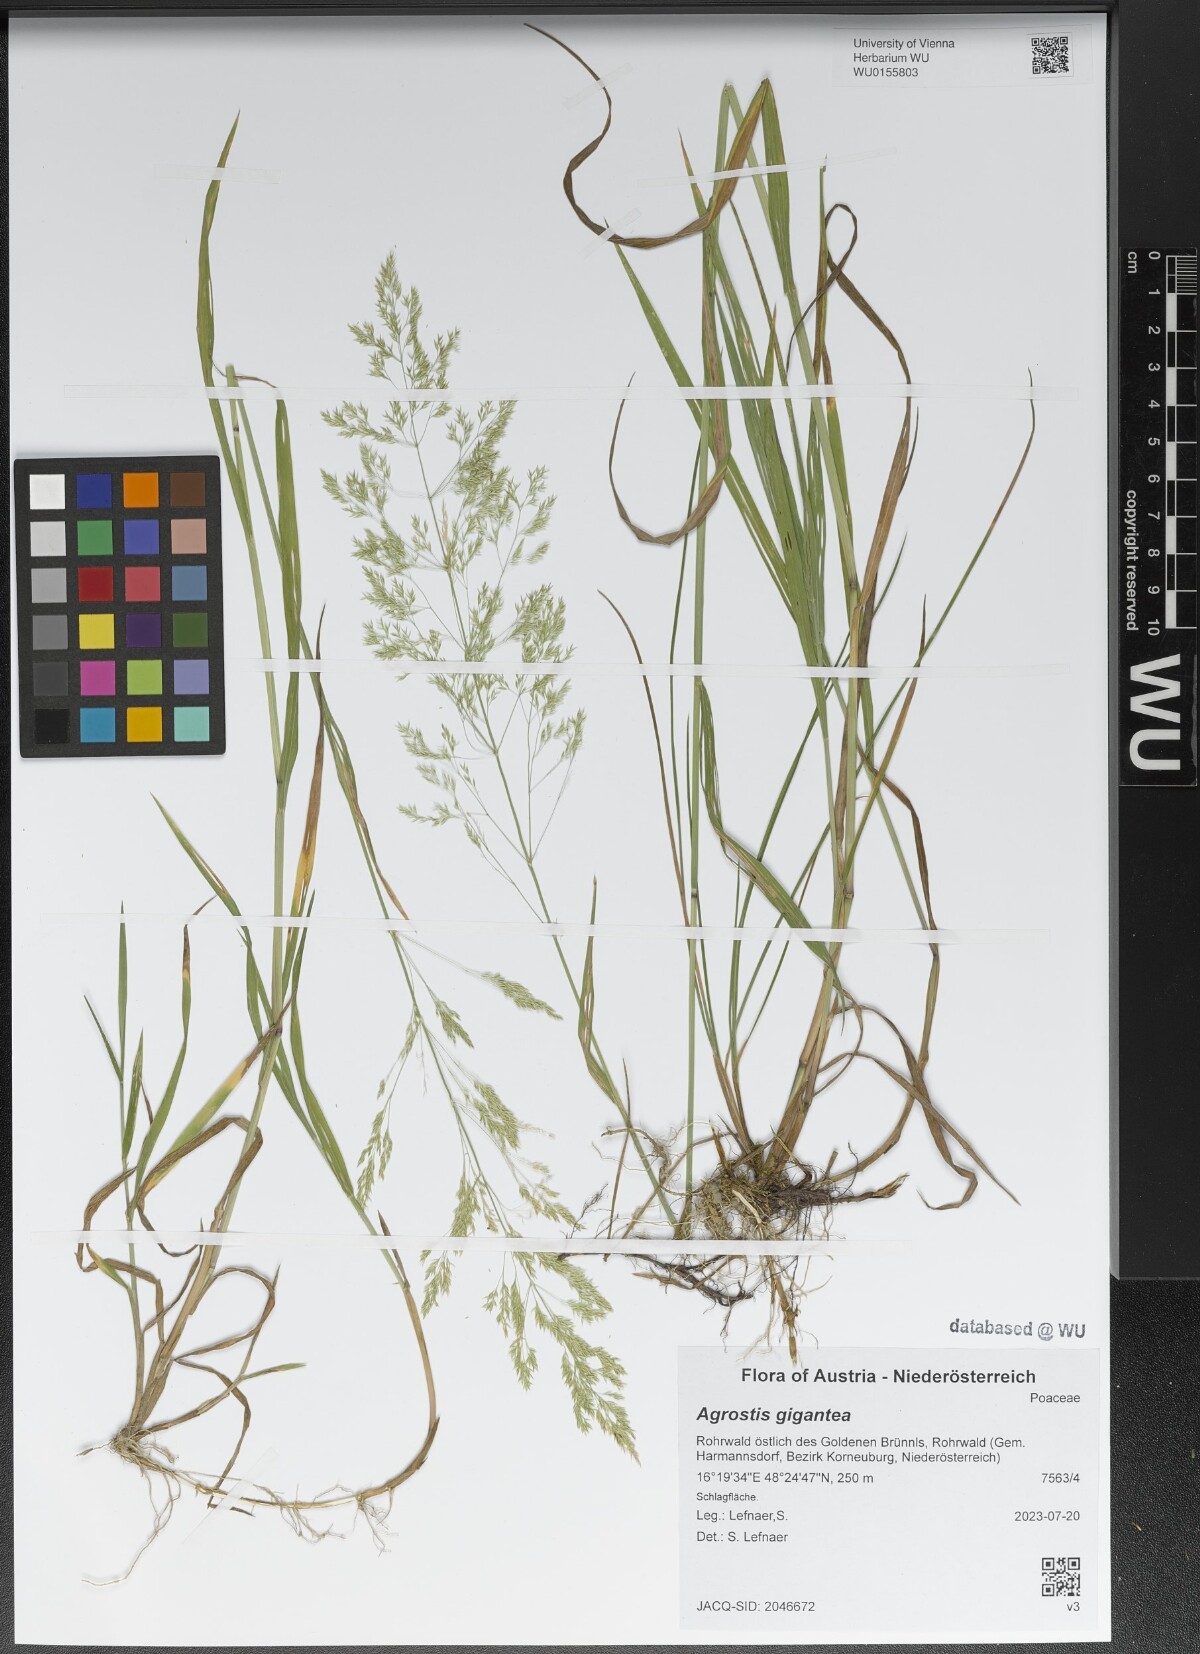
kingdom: Plantae
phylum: Tracheophyta
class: Liliopsida
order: Poales
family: Poaceae
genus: Agrostis
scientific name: Agrostis gigantea
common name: Black bent
